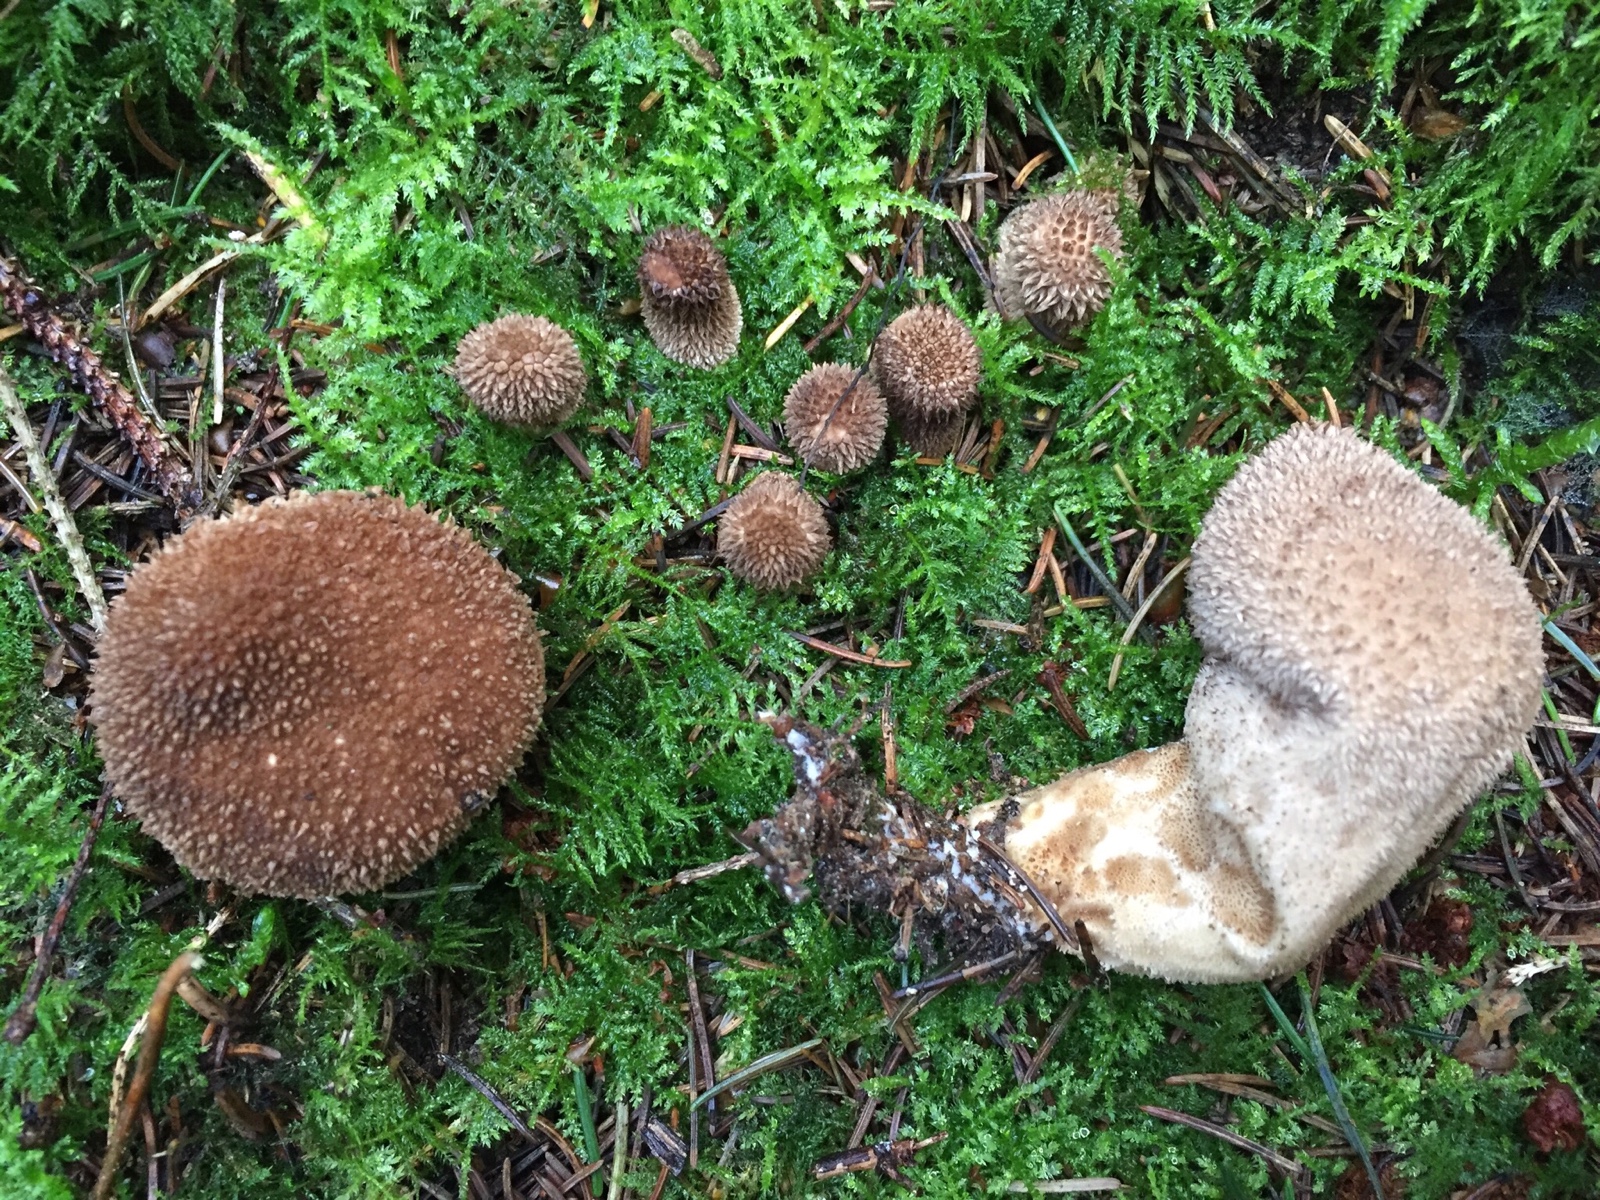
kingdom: Fungi
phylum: Basidiomycota
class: Agaricomycetes
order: Agaricales
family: Lycoperdaceae
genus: Lycoperdon
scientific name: Lycoperdon nigrescens
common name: sortagtig støvbold
